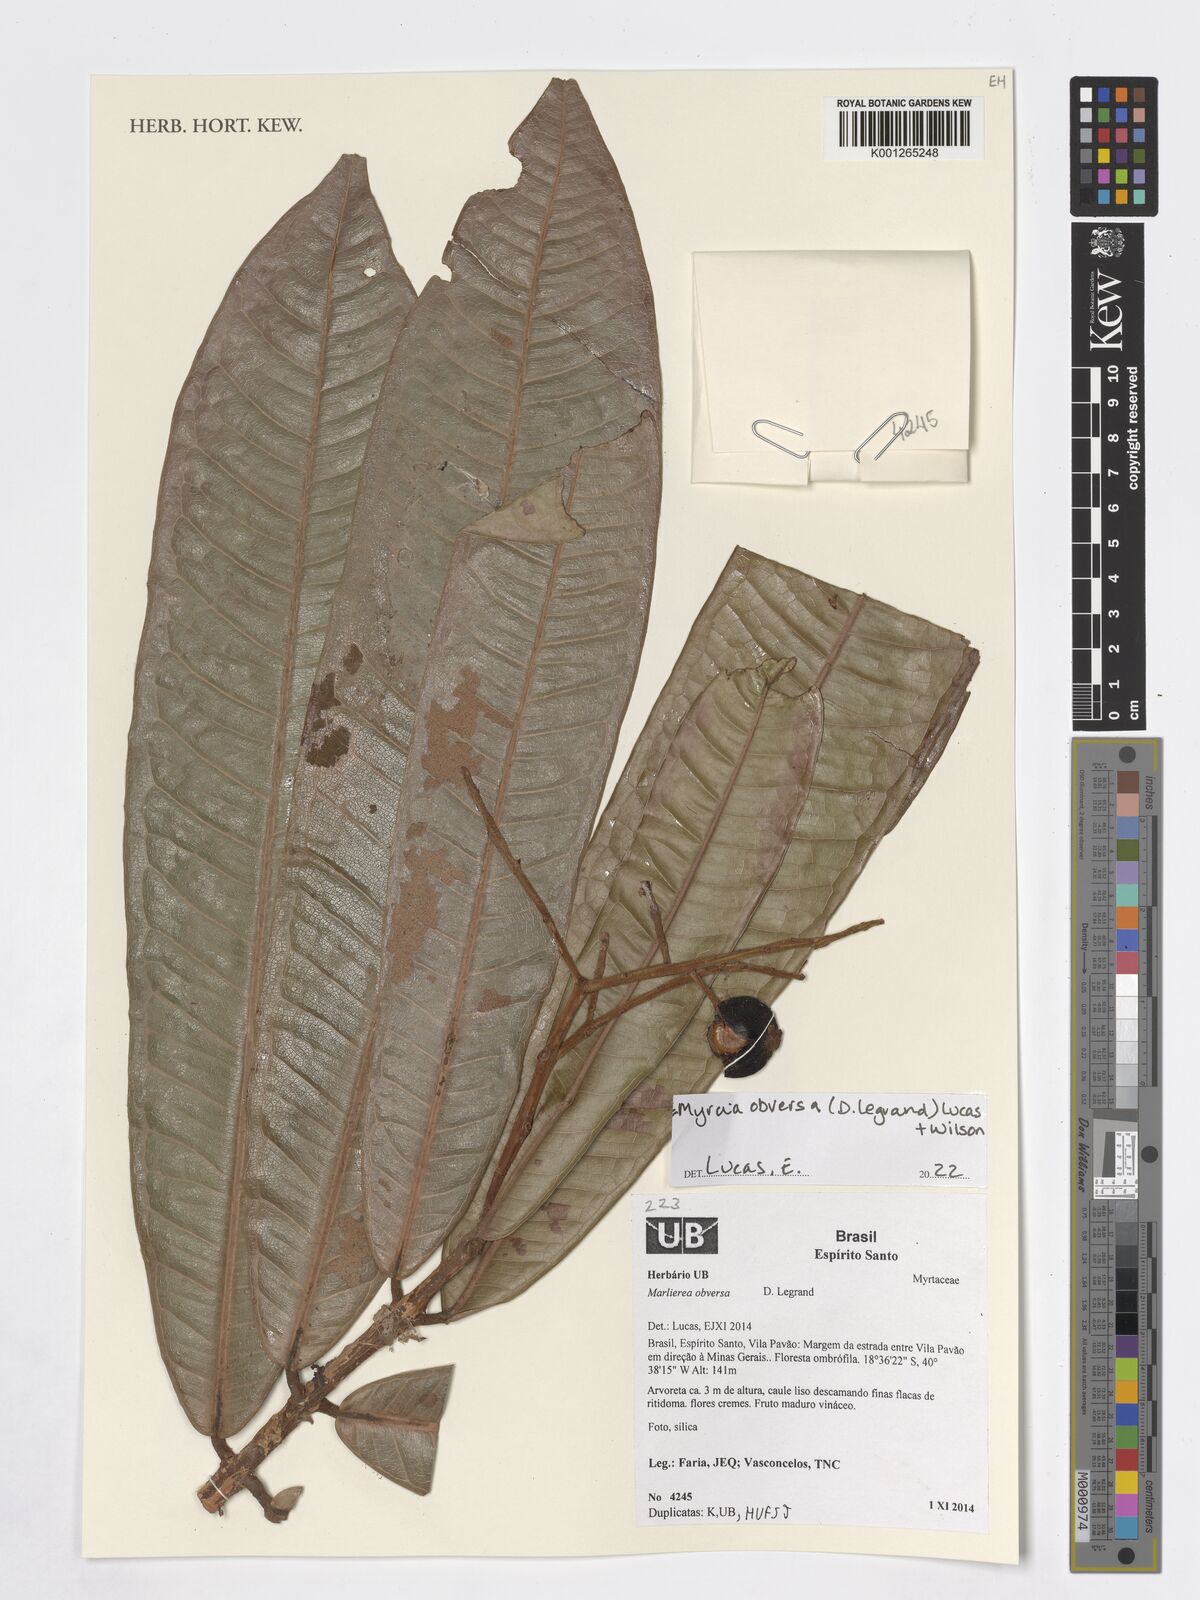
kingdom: Plantae
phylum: Tracheophyta
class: Magnoliopsida
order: Myrtales
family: Myrtaceae
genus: Myrcia
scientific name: Myrcia obversa
